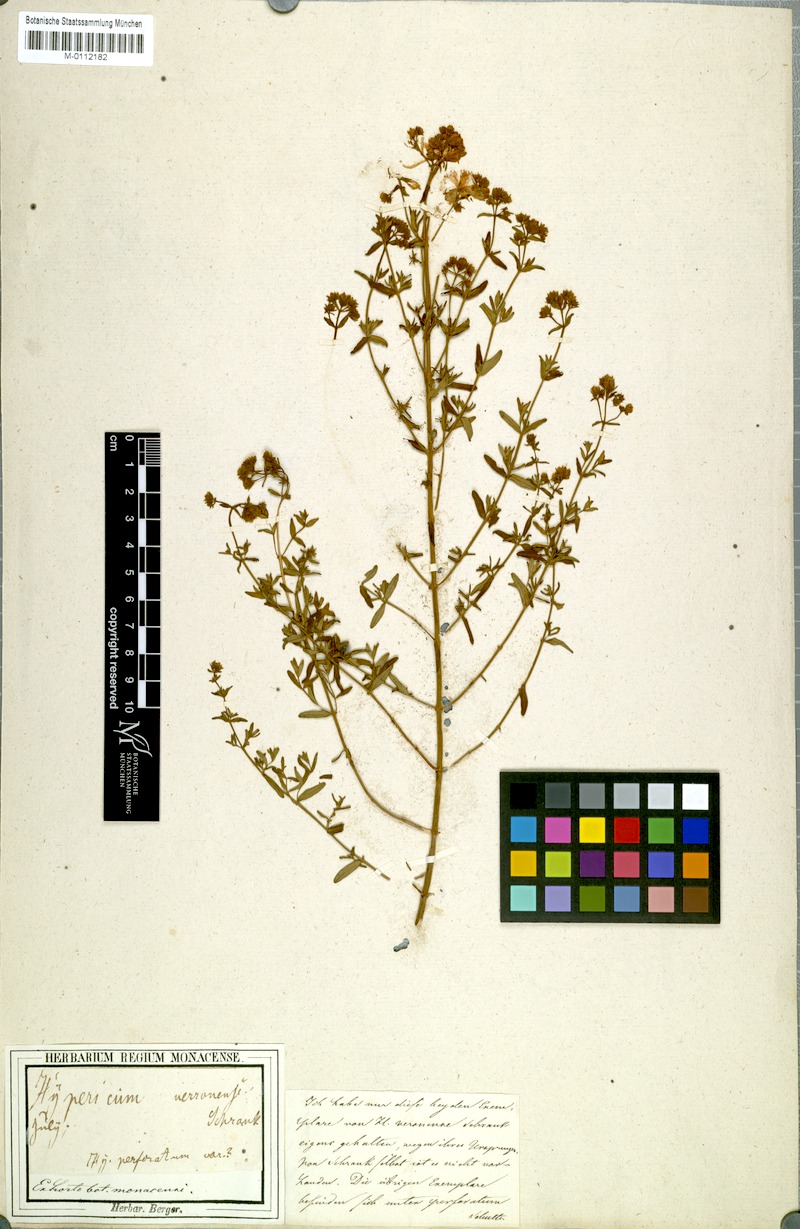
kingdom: Plantae
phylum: Tracheophyta
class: Magnoliopsida
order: Malpighiales
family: Hypericaceae
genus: Hypericum
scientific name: Hypericum perforatum
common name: Common st. johnswort
